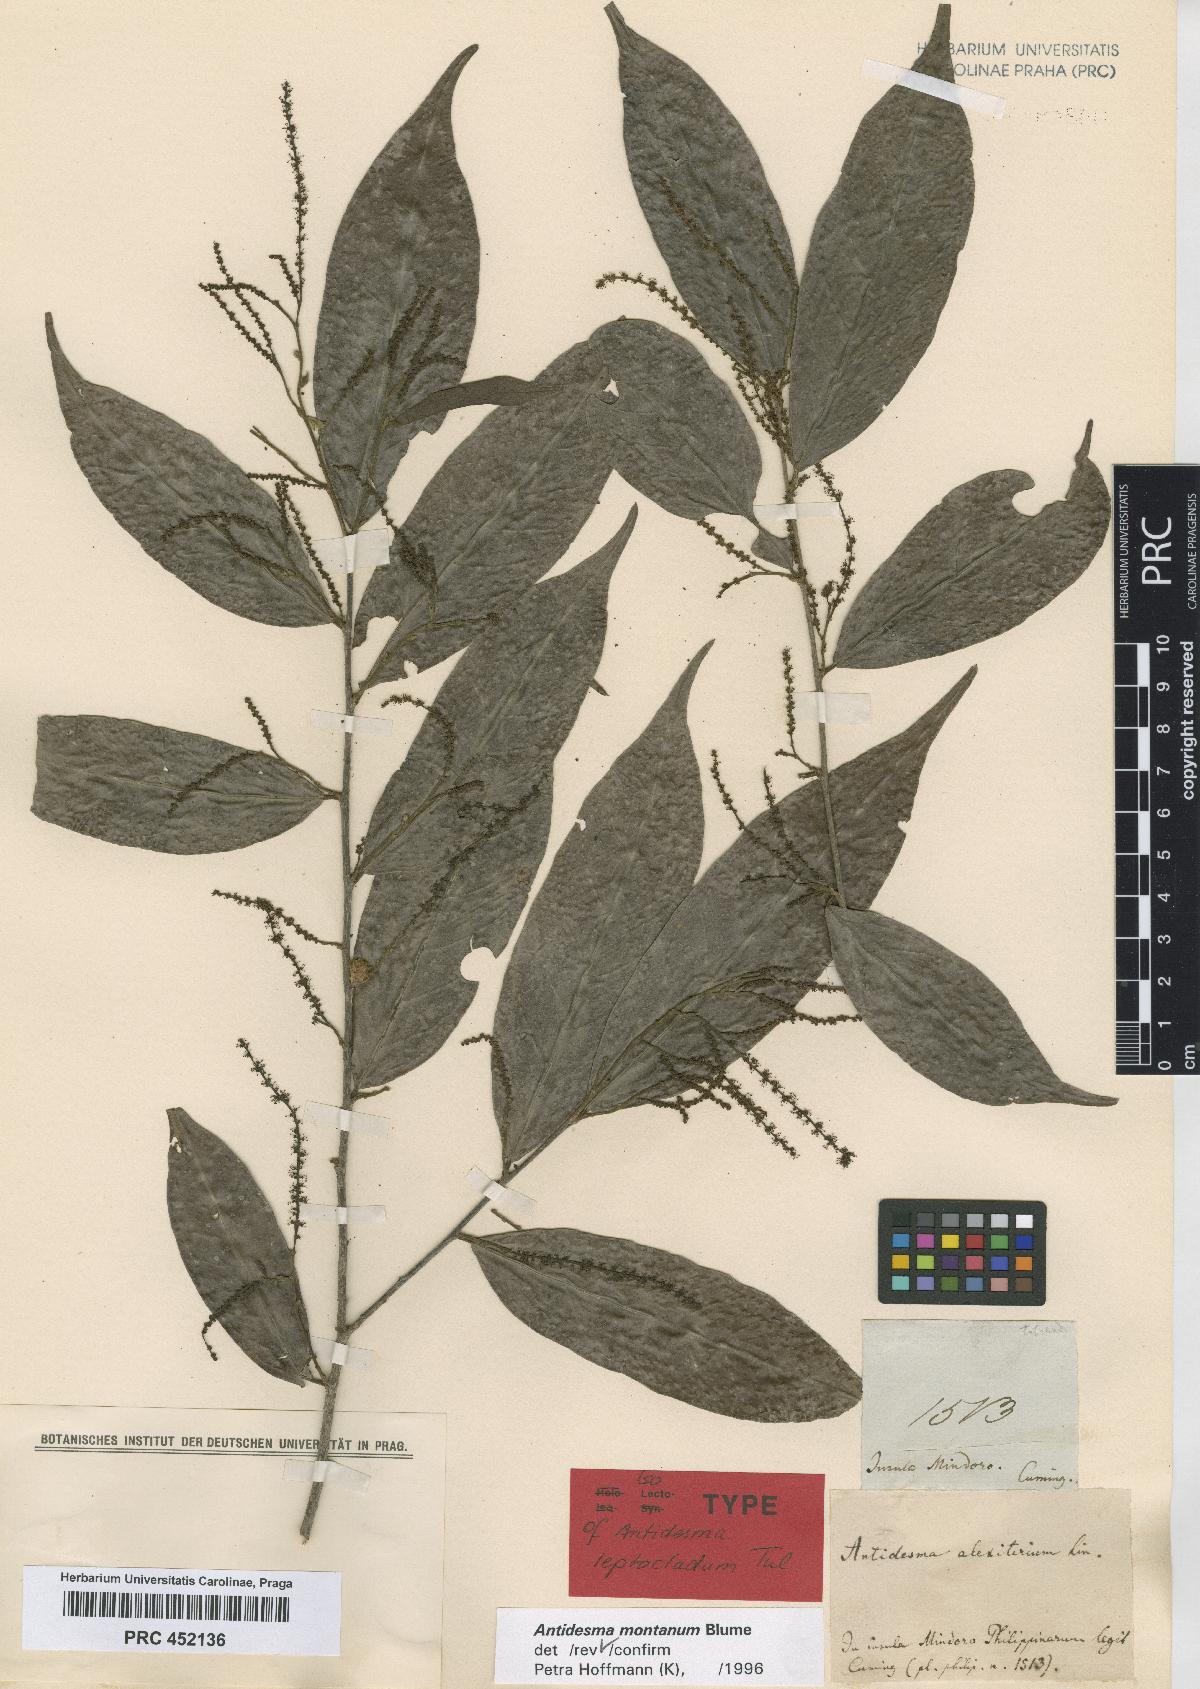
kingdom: Plantae
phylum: Tracheophyta
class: Magnoliopsida
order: Malpighiales
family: Phyllanthaceae
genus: Antidesma
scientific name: Antidesma montanum
